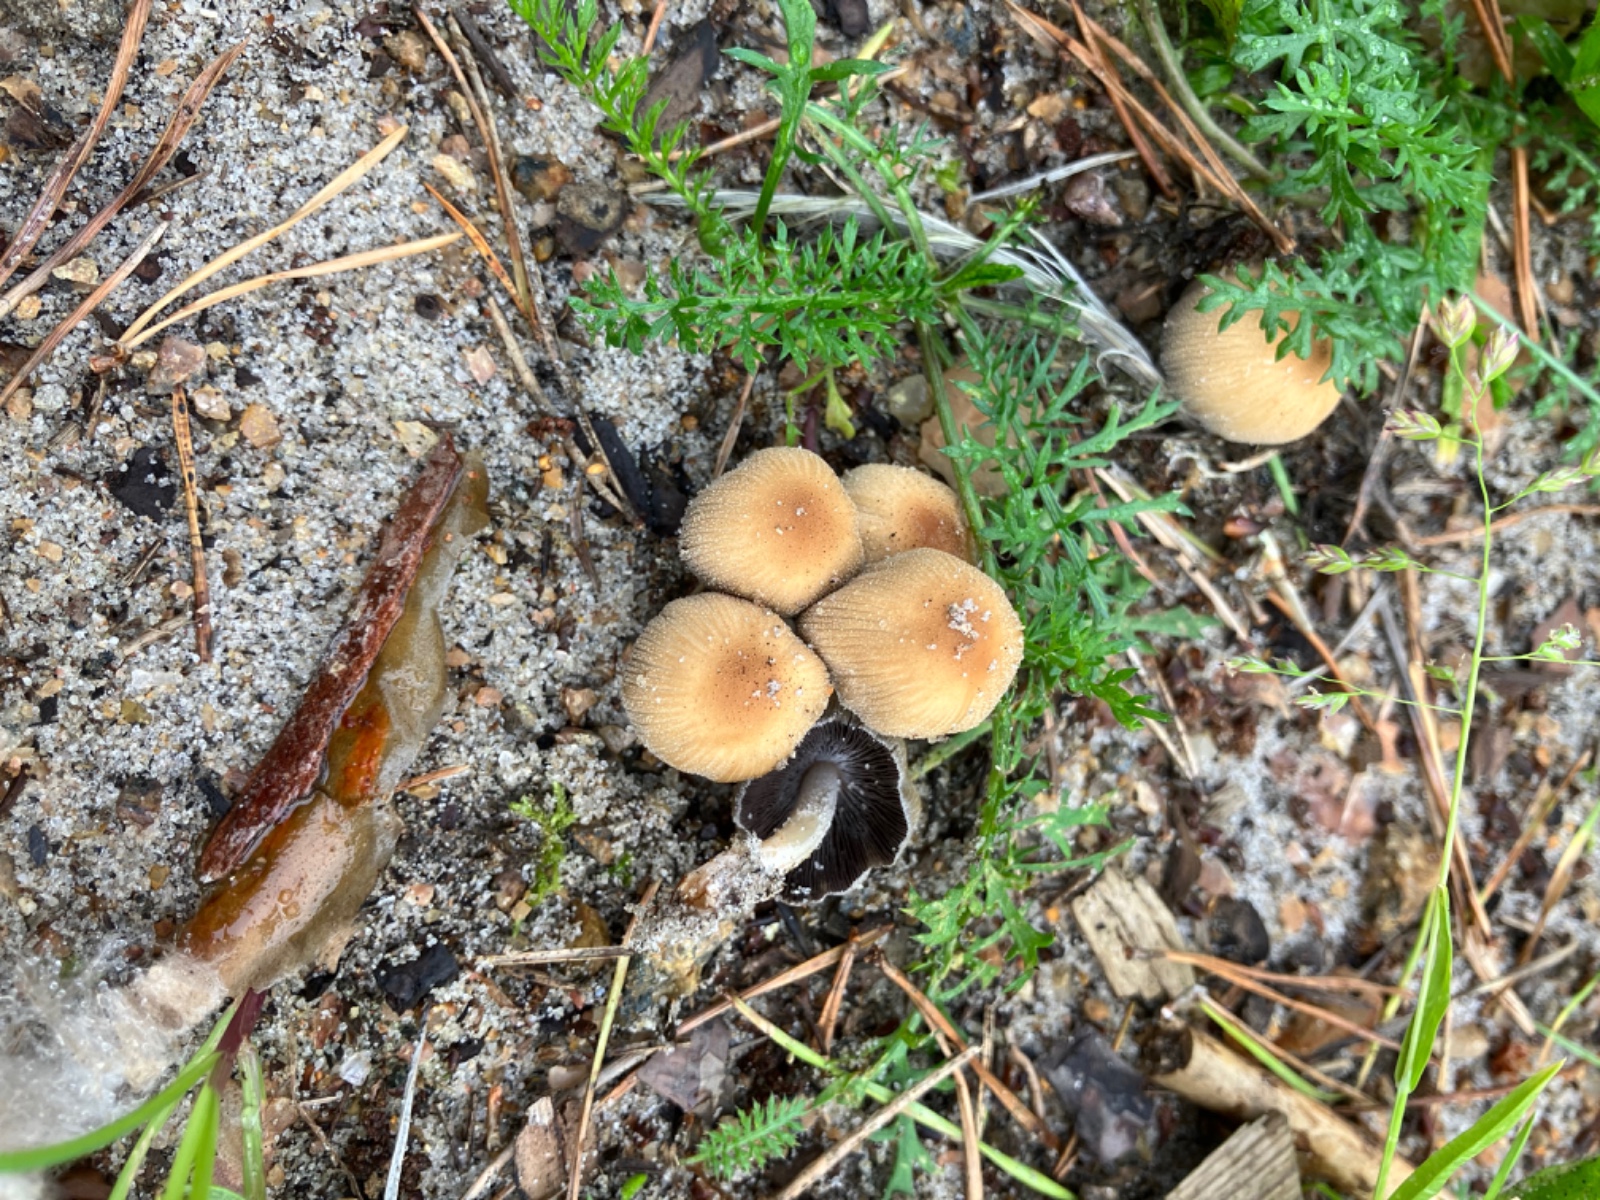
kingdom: Fungi
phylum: Basidiomycota
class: Agaricomycetes
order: Agaricales
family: Psathyrellaceae
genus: Coprinellus
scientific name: Coprinellus micaceus
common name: glimmer-blækhat
